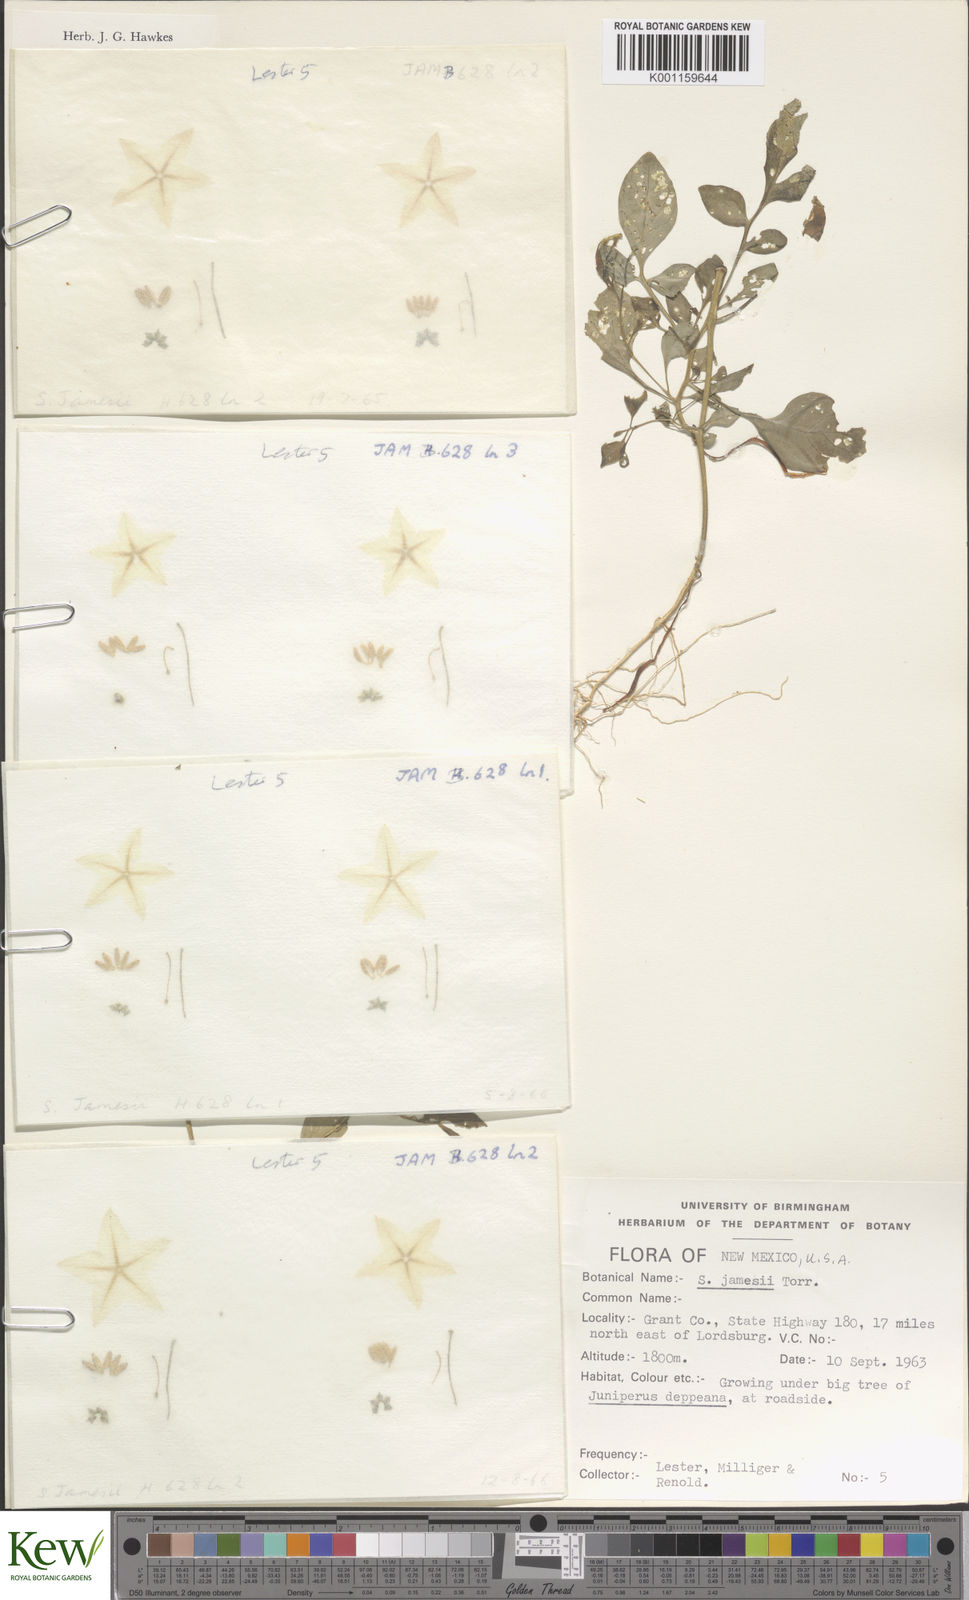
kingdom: Plantae
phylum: Tracheophyta
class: Magnoliopsida
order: Solanales
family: Solanaceae
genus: Solanum
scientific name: Solanum jamesii
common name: Wild potato
